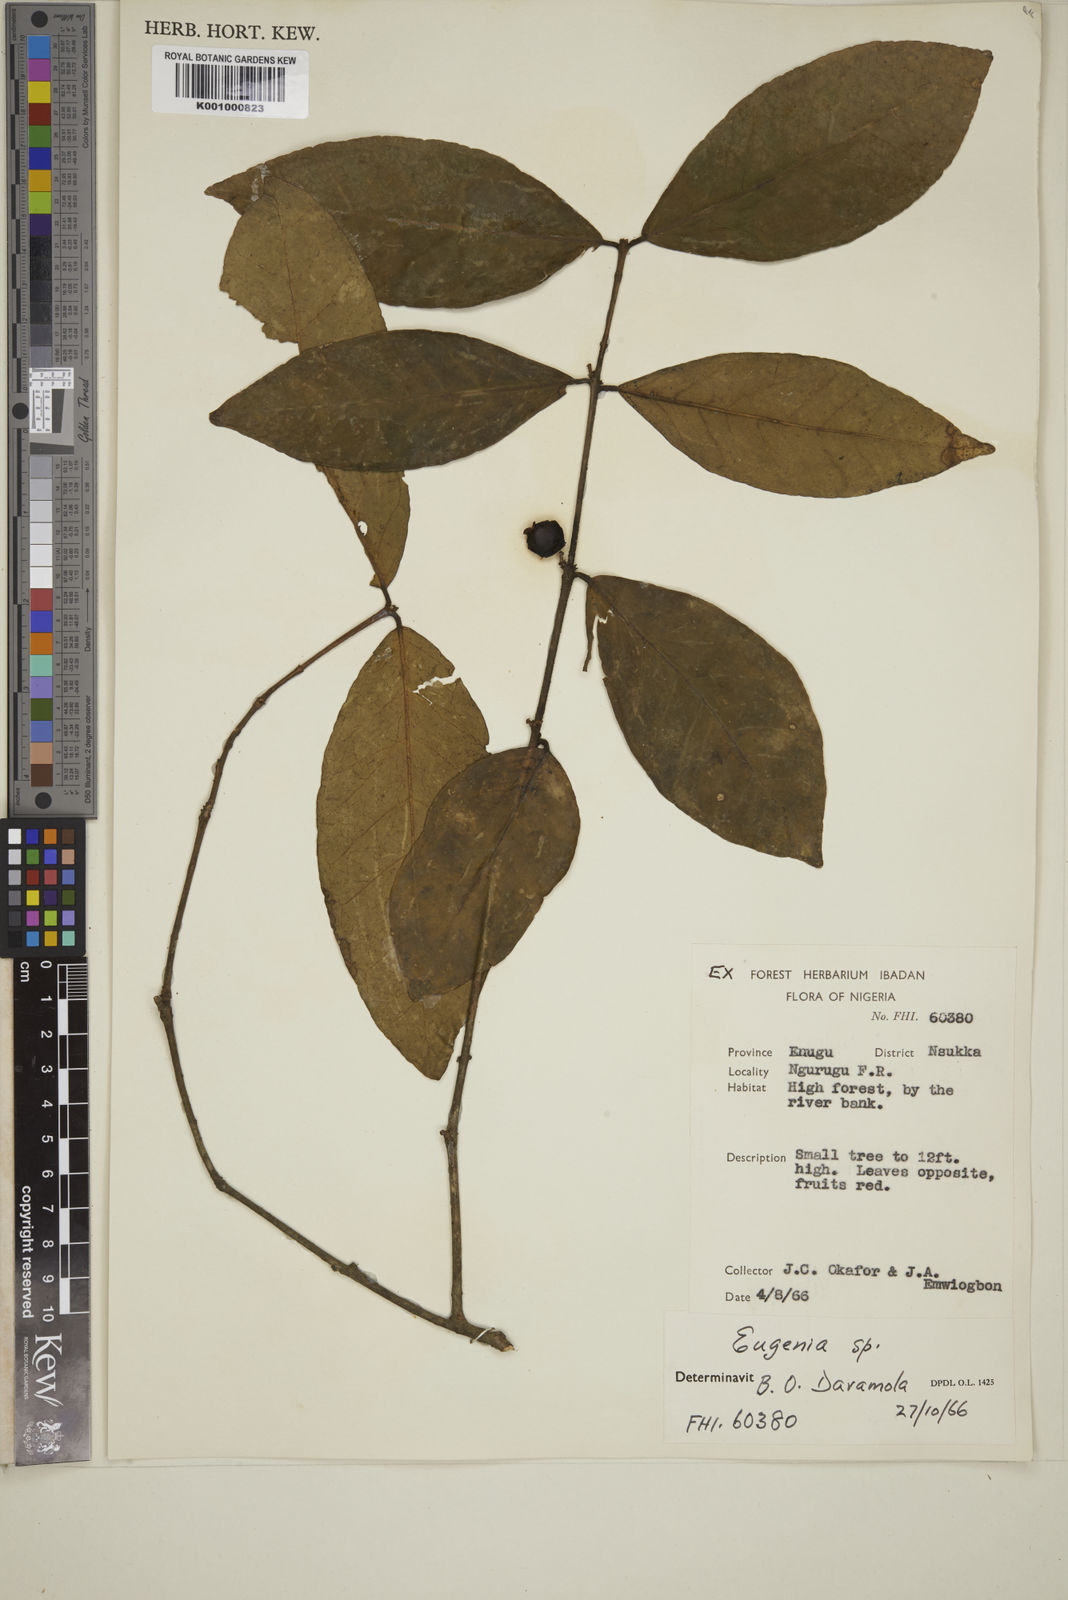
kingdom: Plantae
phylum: Tracheophyta
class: Magnoliopsida
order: Myrtales
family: Myrtaceae
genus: Eugenia
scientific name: Eugenia
